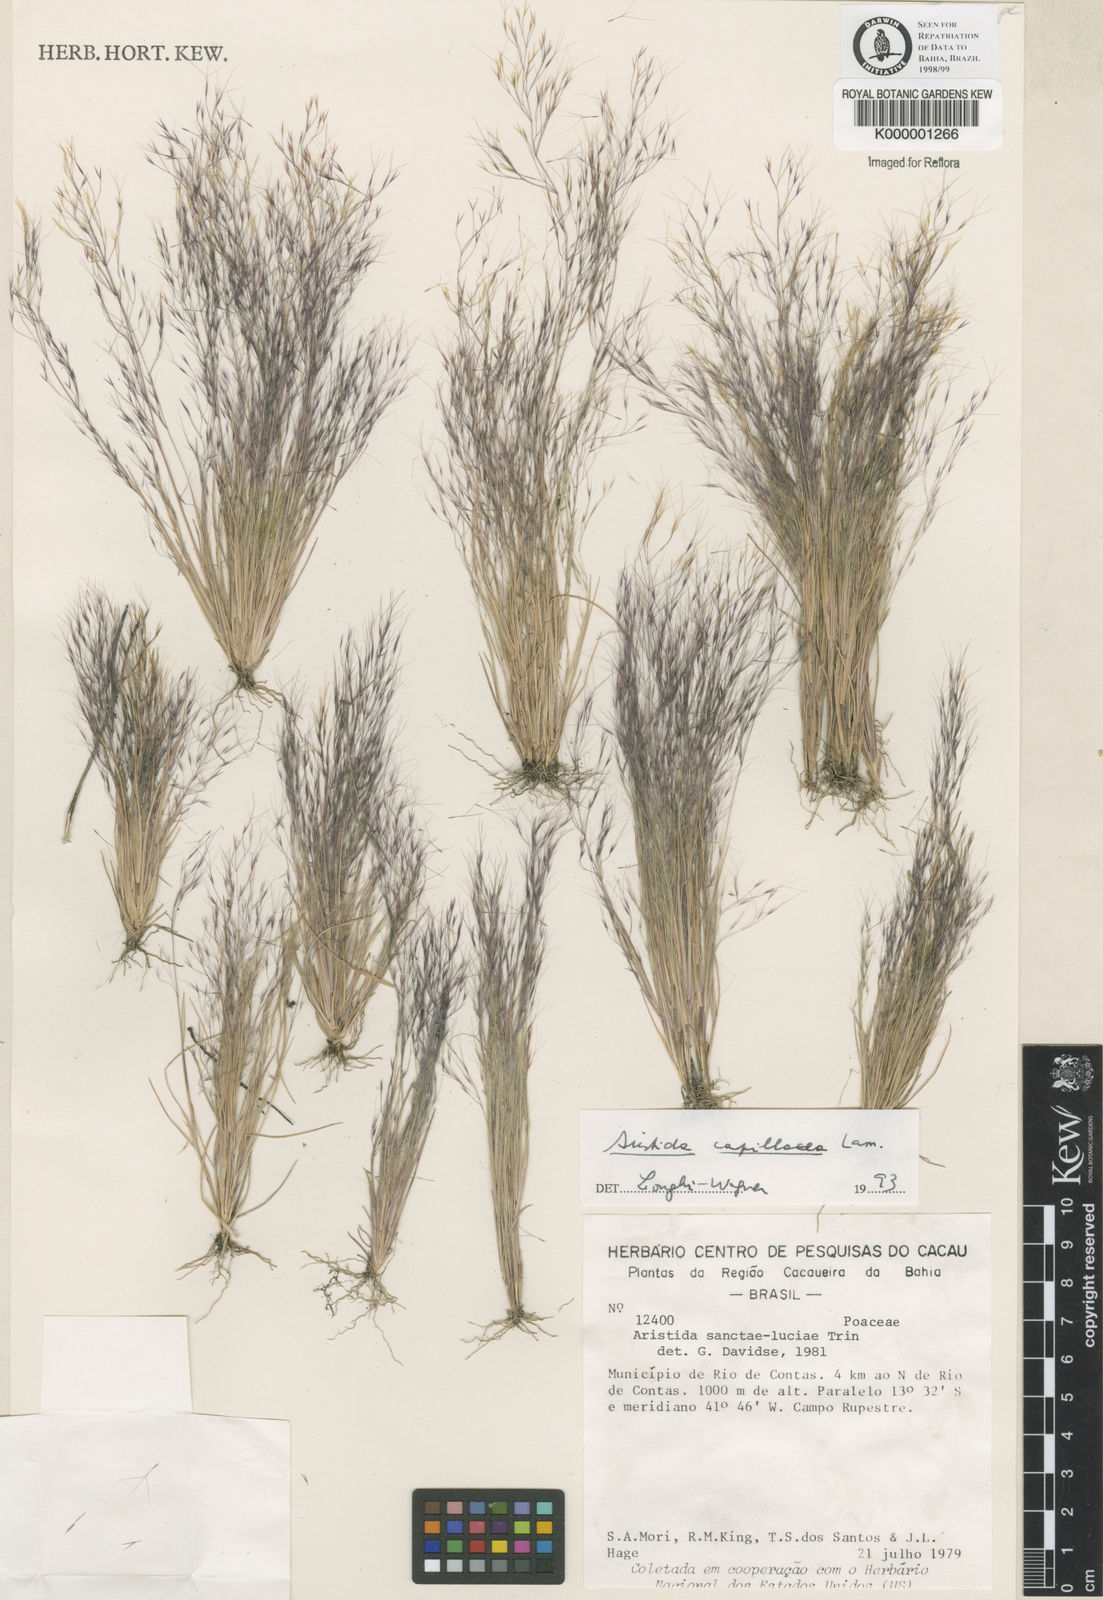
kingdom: Plantae
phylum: Tracheophyta
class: Liliopsida
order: Poales
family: Poaceae
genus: Aristida
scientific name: Aristida capillacea
